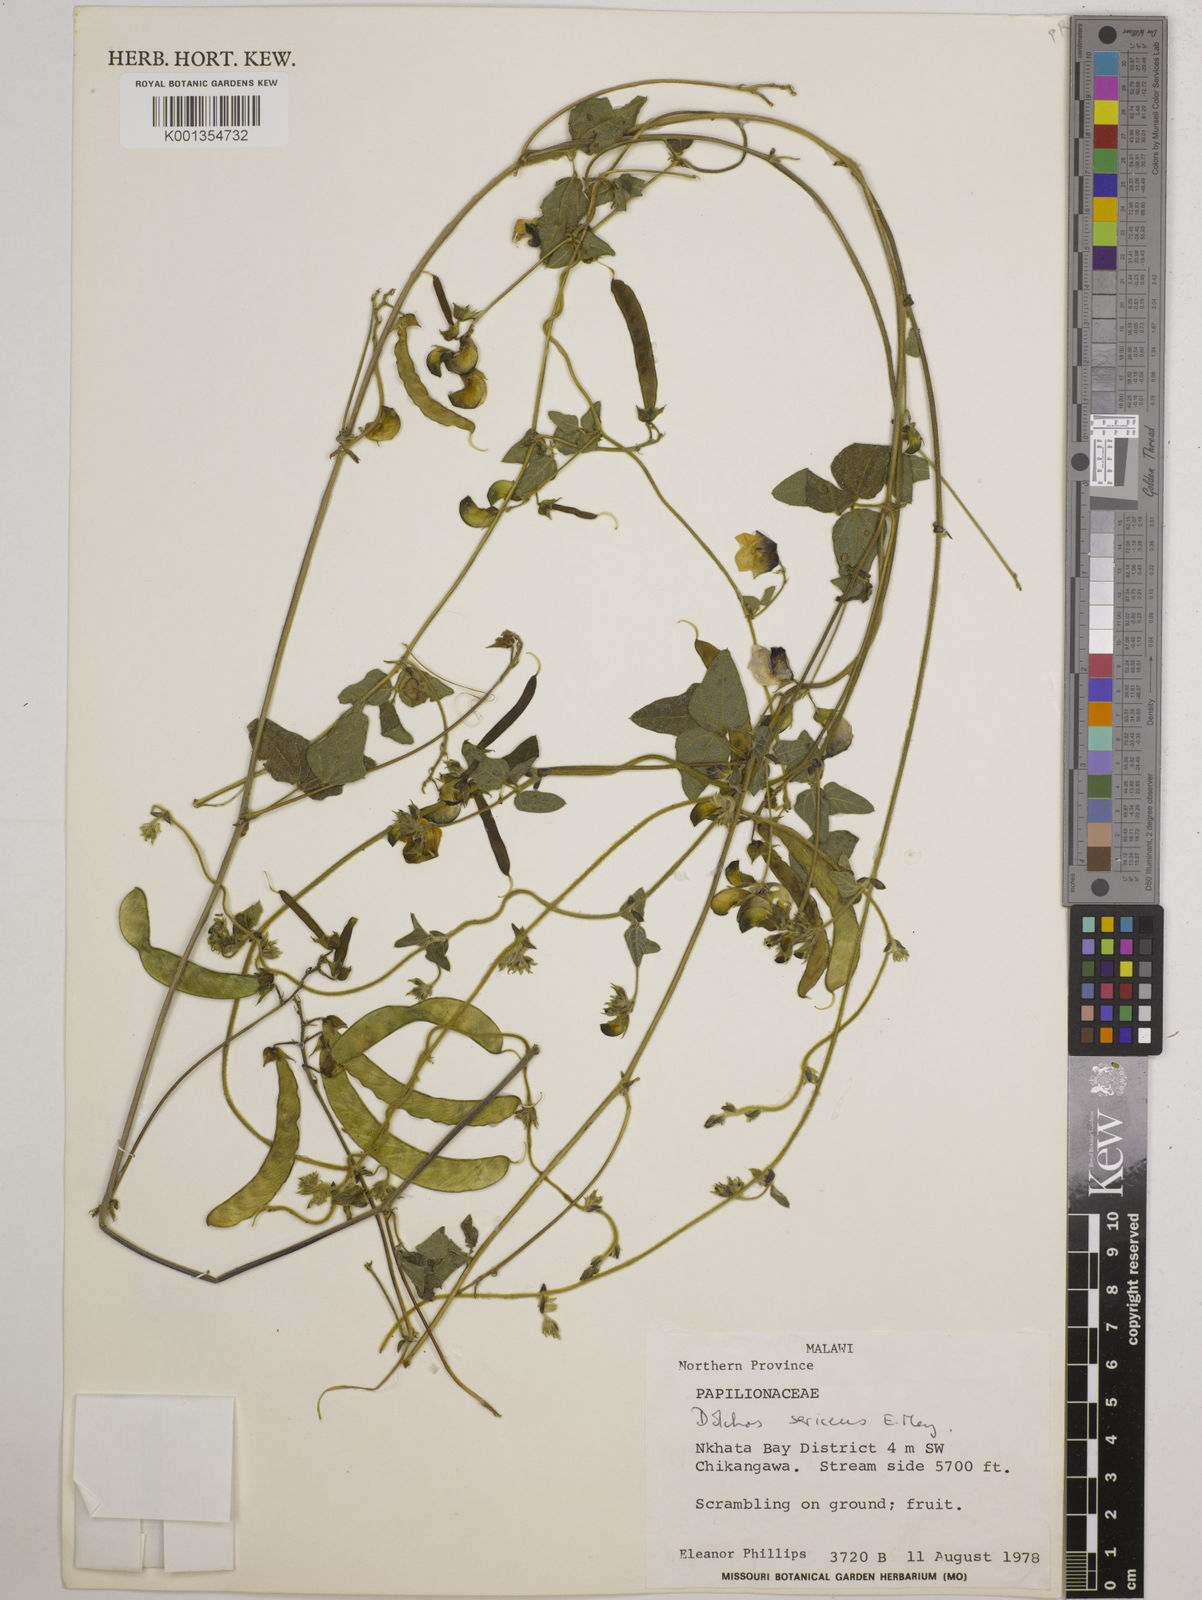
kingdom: Plantae
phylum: Tracheophyta
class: Magnoliopsida
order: Fabales
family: Fabaceae
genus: Dolichos
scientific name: Dolichos
